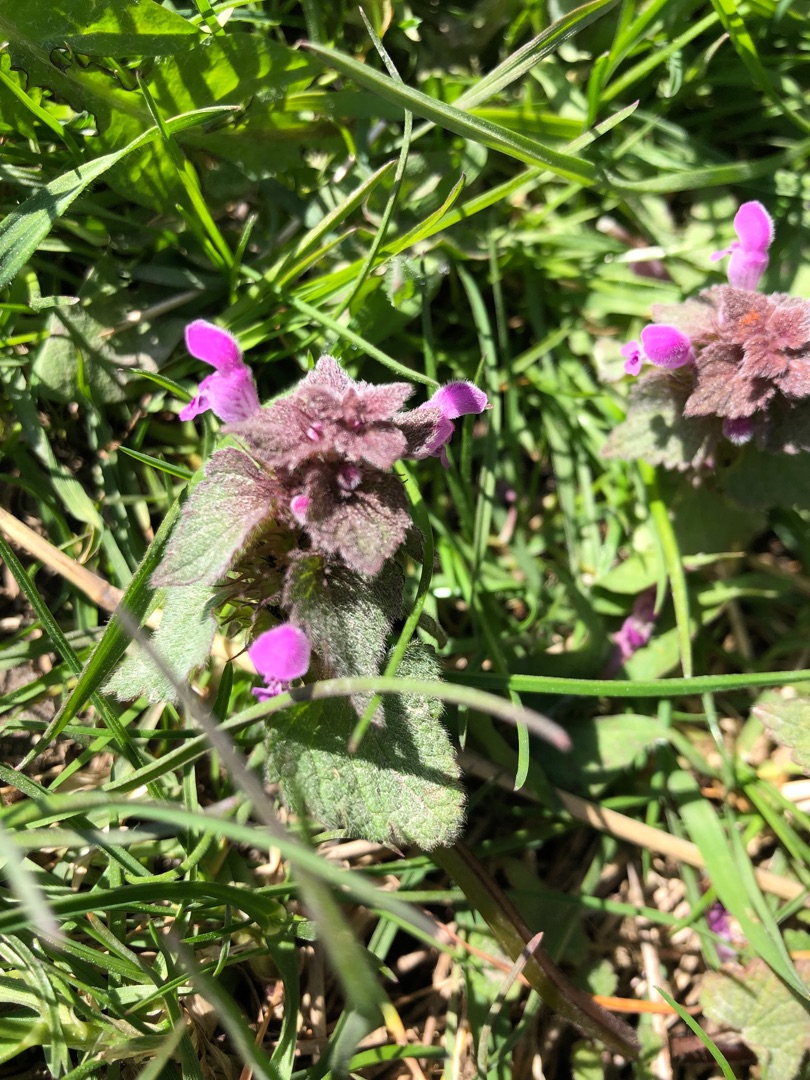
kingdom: Plantae
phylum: Tracheophyta
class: Magnoliopsida
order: Lamiales
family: Lamiaceae
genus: Lamium
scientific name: Lamium purpureum
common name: Rød tvetand
